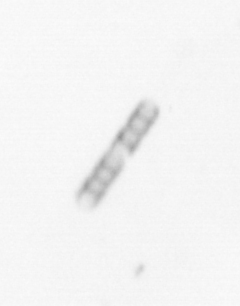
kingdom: Chromista
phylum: Ochrophyta
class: Bacillariophyceae
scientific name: Bacillariophyceae
